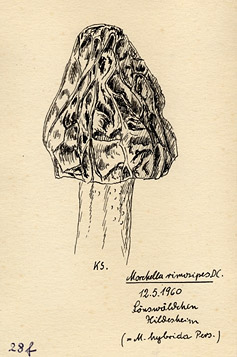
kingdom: Fungi
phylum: Ascomycota
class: Pezizomycetes
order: Pezizales
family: Morchellaceae
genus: Morchella
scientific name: Morchella semilibera
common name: Semifree morel
